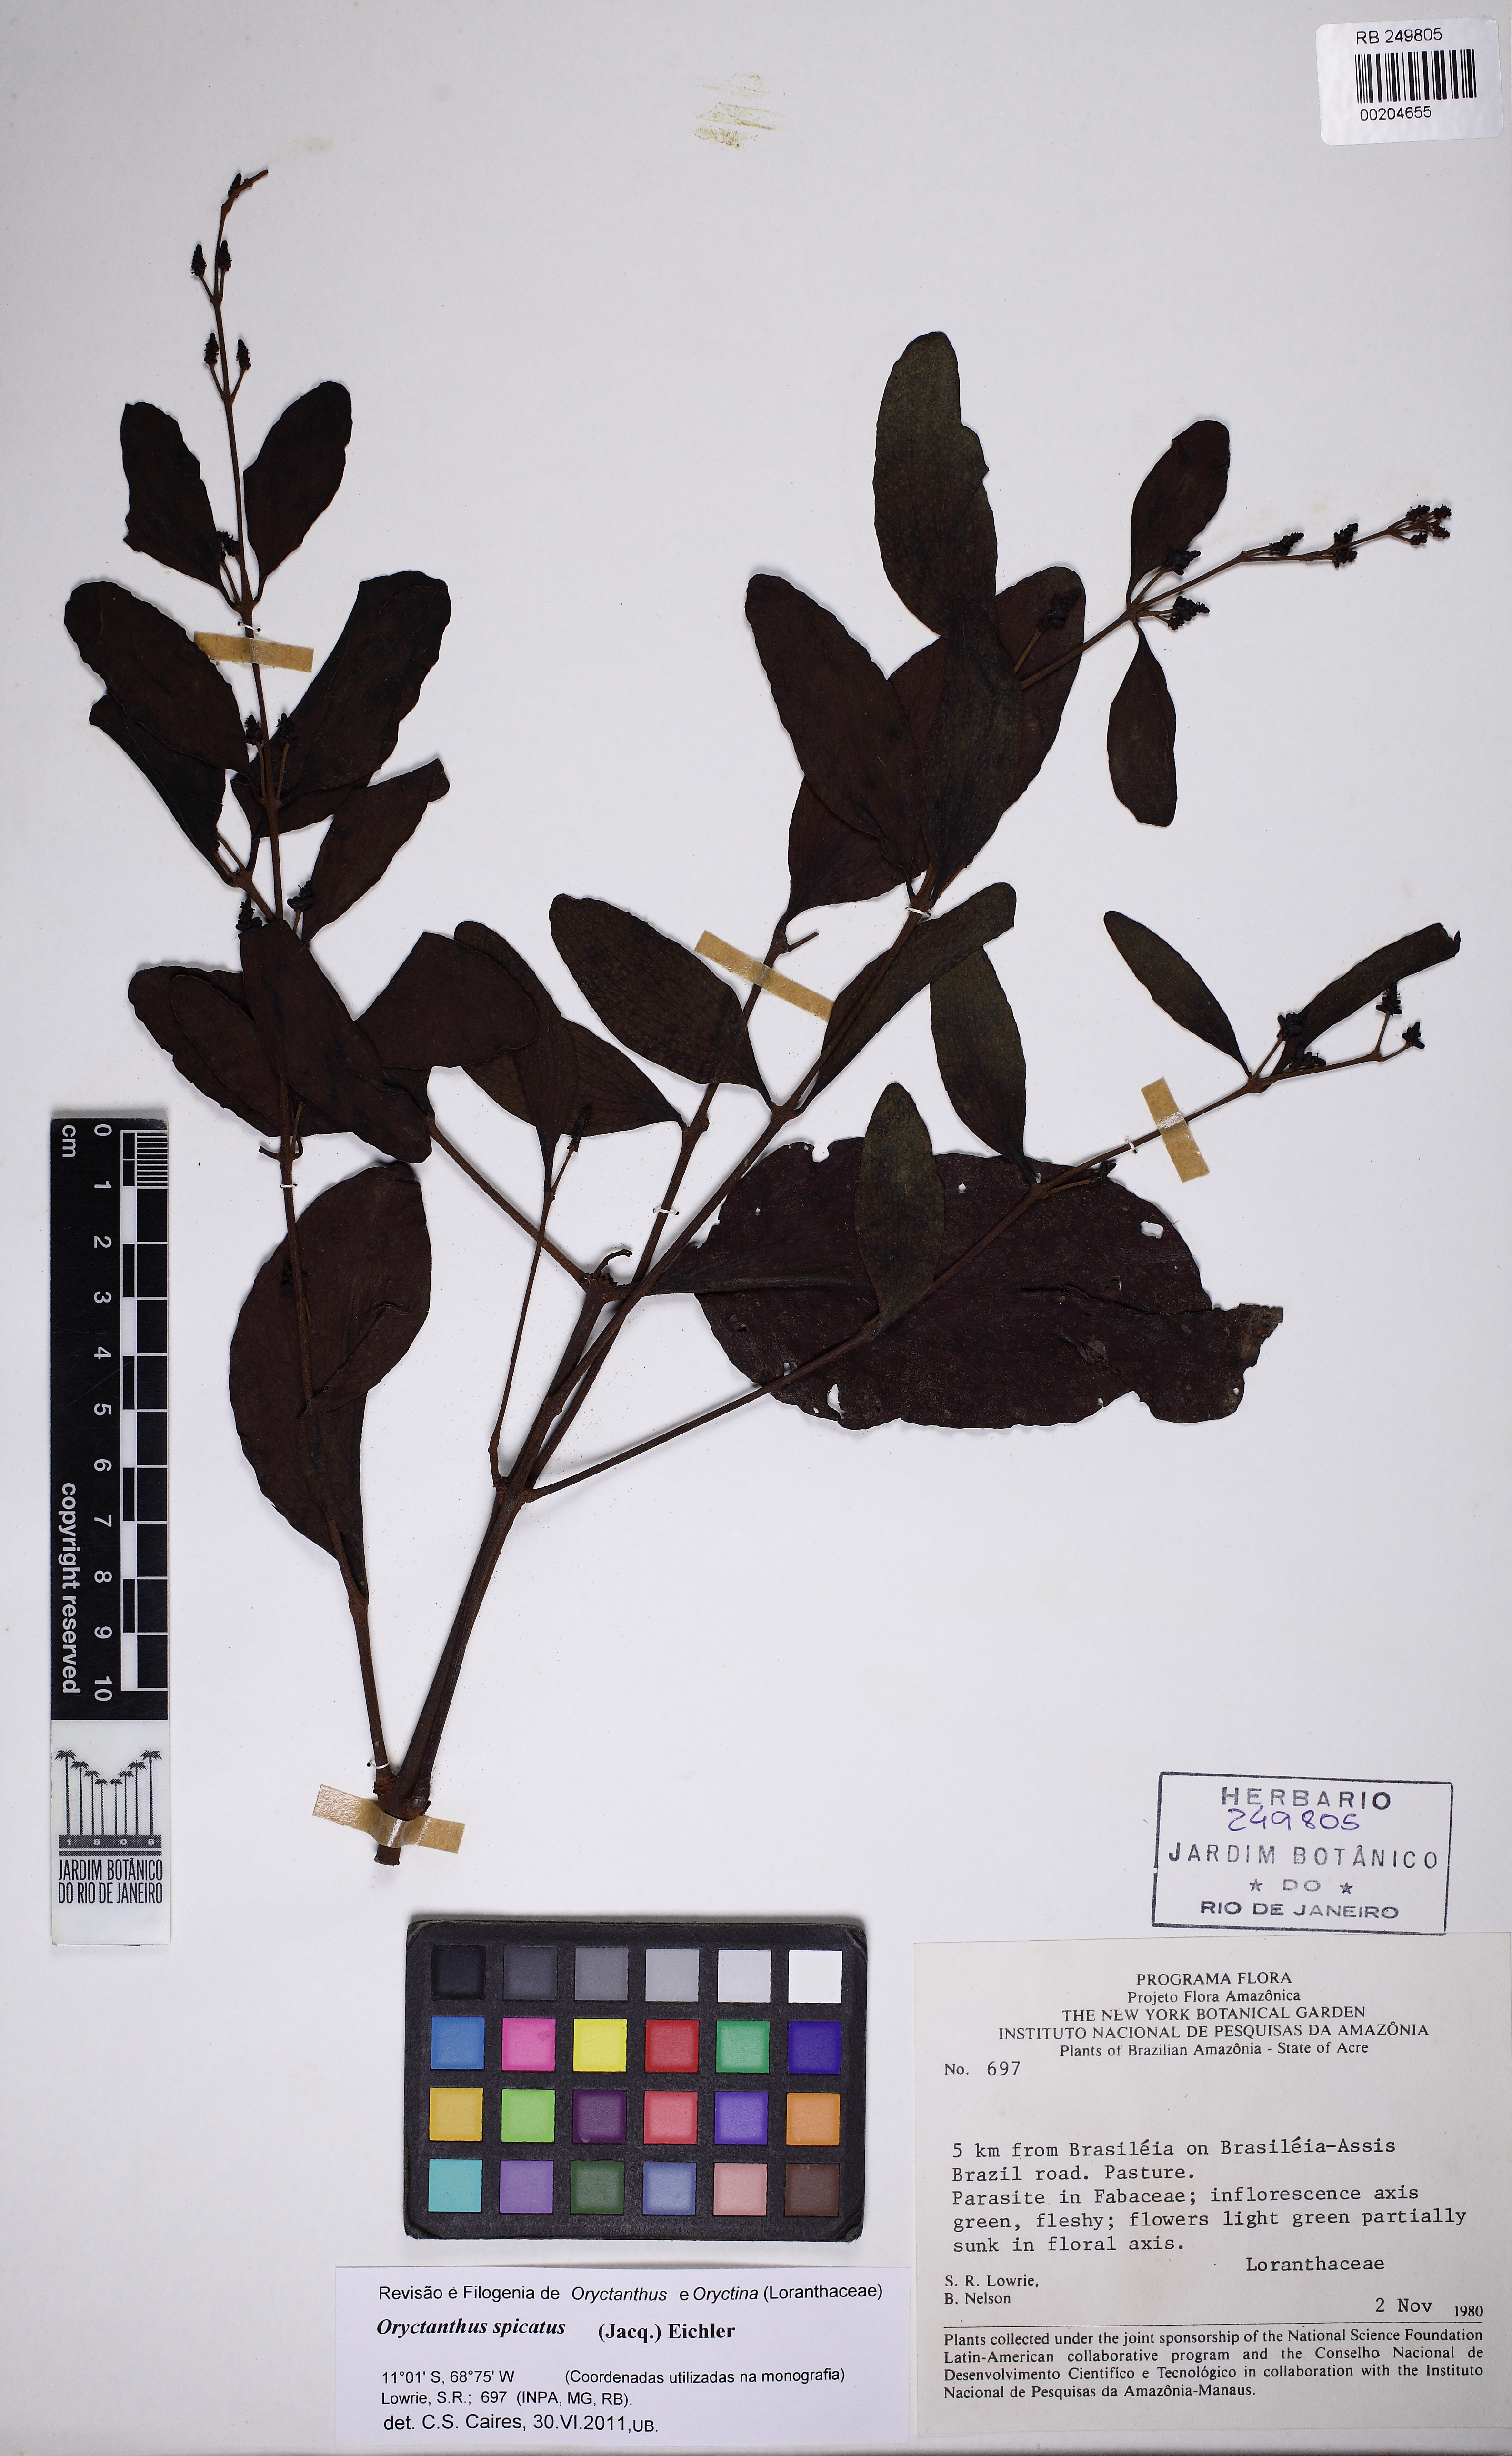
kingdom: Plantae
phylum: Tracheophyta
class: Magnoliopsida
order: Santalales
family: Loranthaceae
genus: Oryctanthus
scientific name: Oryctanthus spicatus
